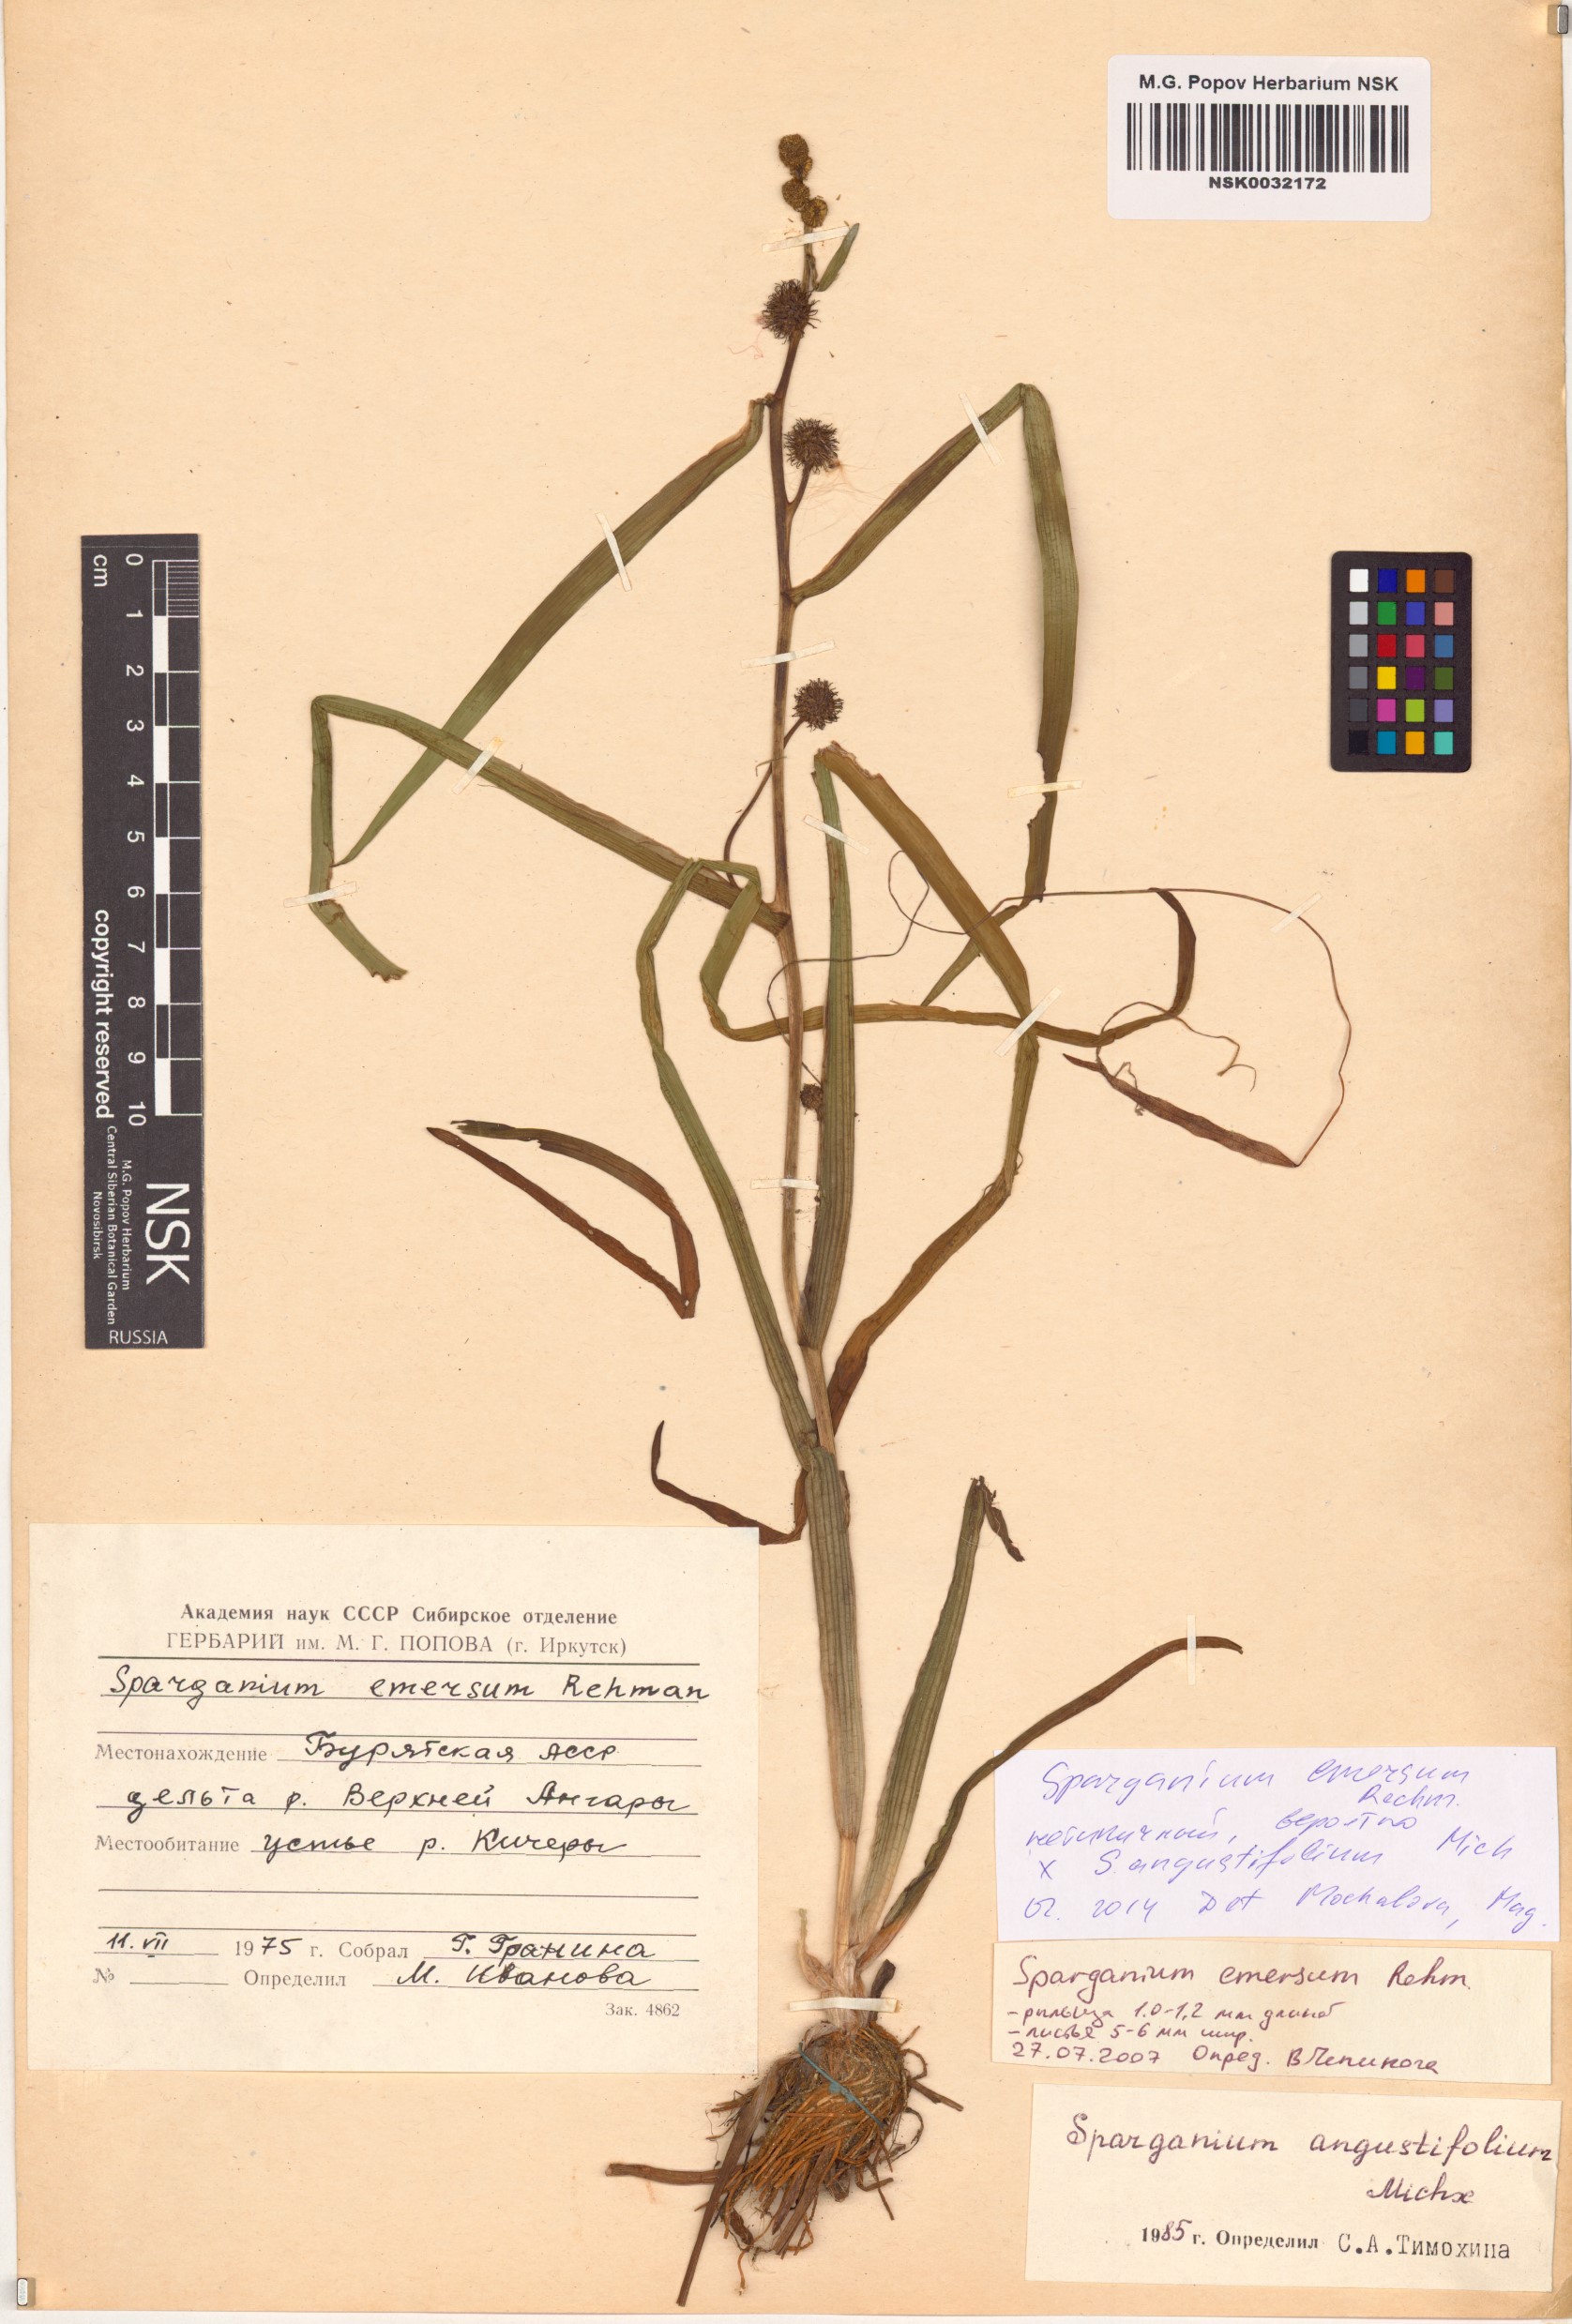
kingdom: Plantae
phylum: Tracheophyta
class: Liliopsida
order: Poales
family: Typhaceae
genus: Sparganium
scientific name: Sparganium emersum
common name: Unbranched bur-reed
